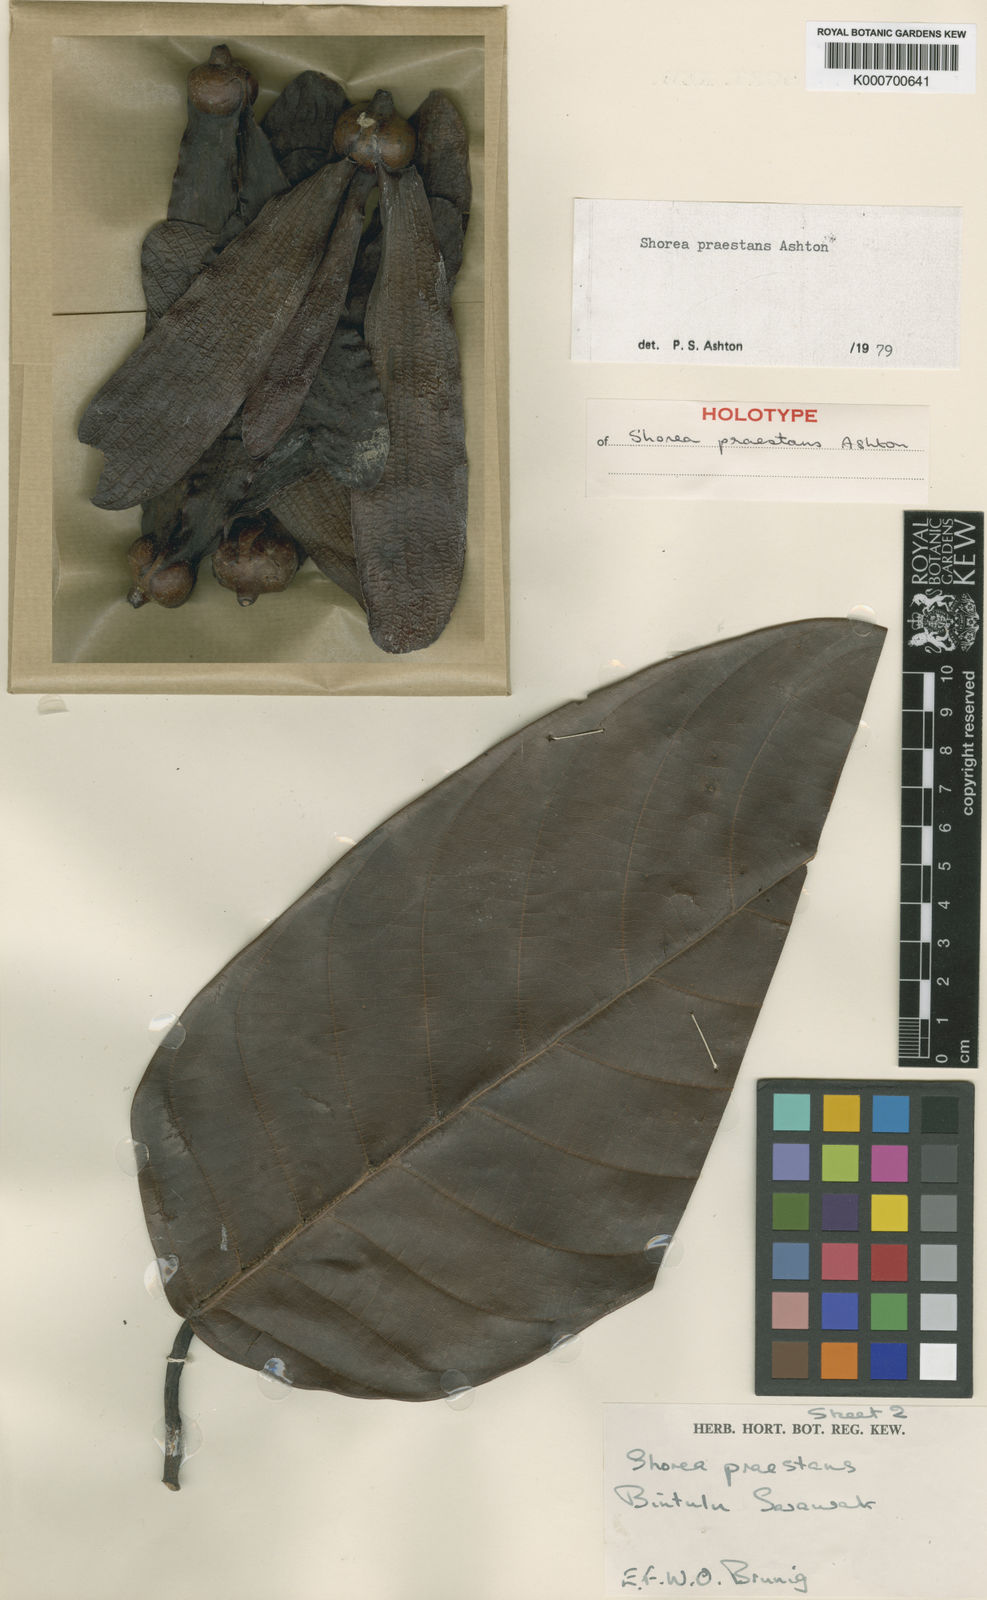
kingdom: Plantae
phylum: Tracheophyta
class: Magnoliopsida
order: Malvales
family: Dipterocarpaceae
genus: Shorea
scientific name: Shorea praestans
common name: Light red meranti
